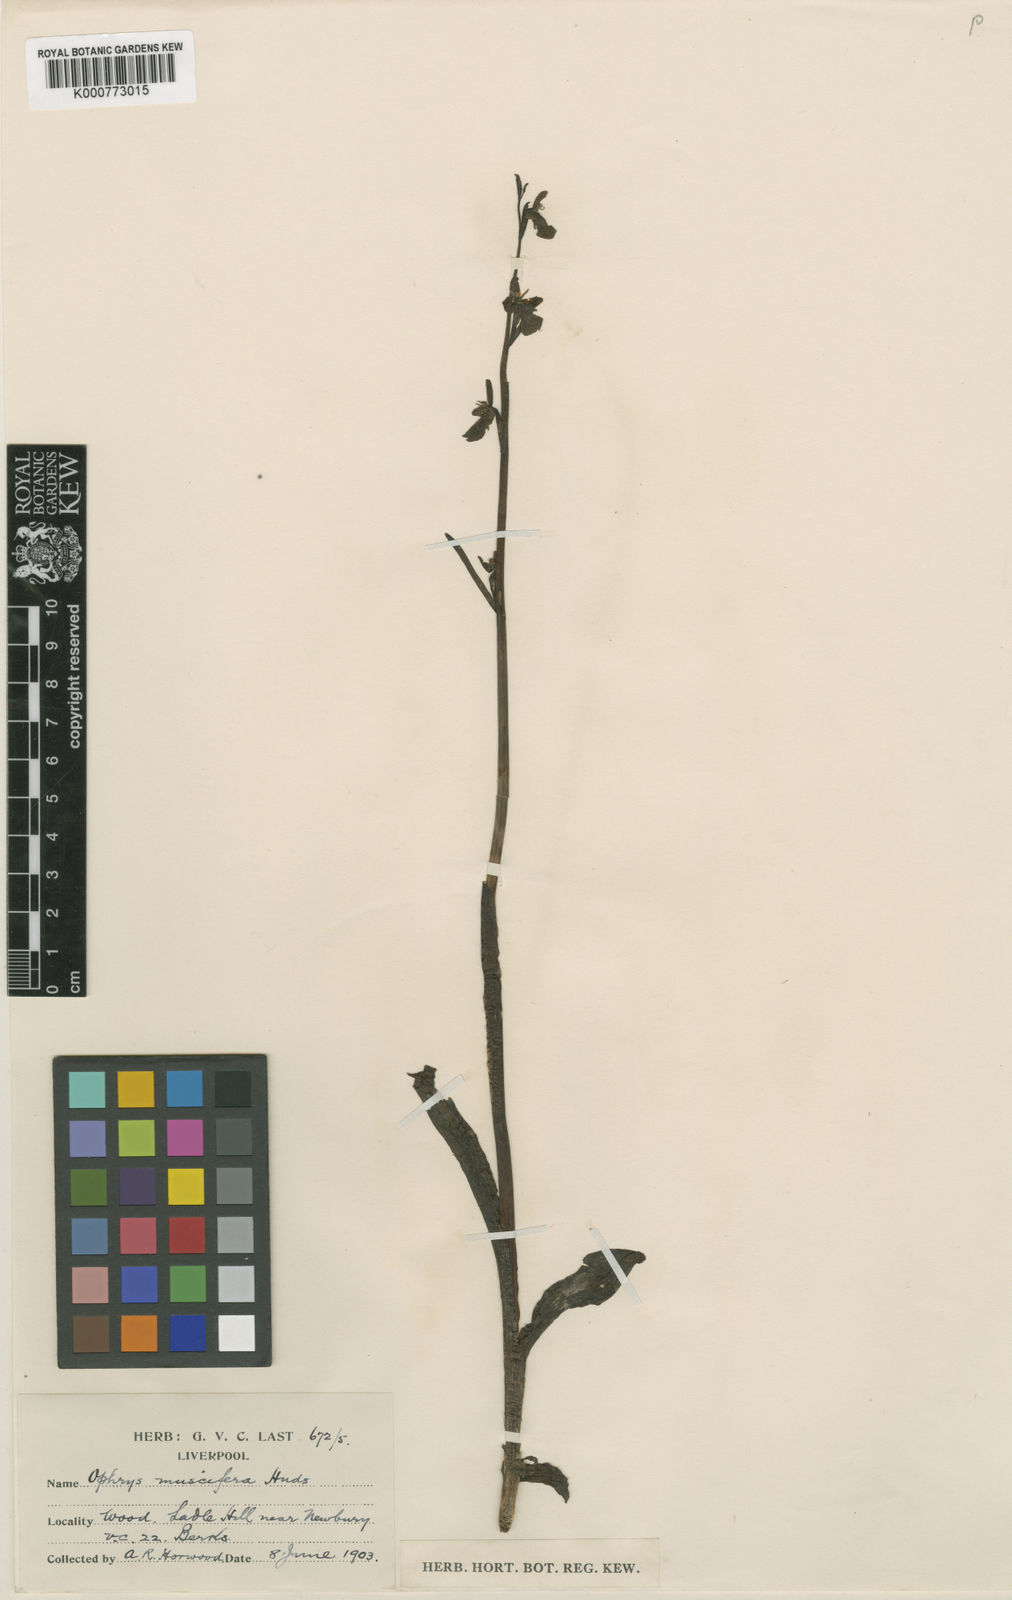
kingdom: Plantae
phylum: Tracheophyta
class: Liliopsida
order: Asparagales
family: Orchidaceae
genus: Ophrys
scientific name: Ophrys insectifera
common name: Fly orchid
